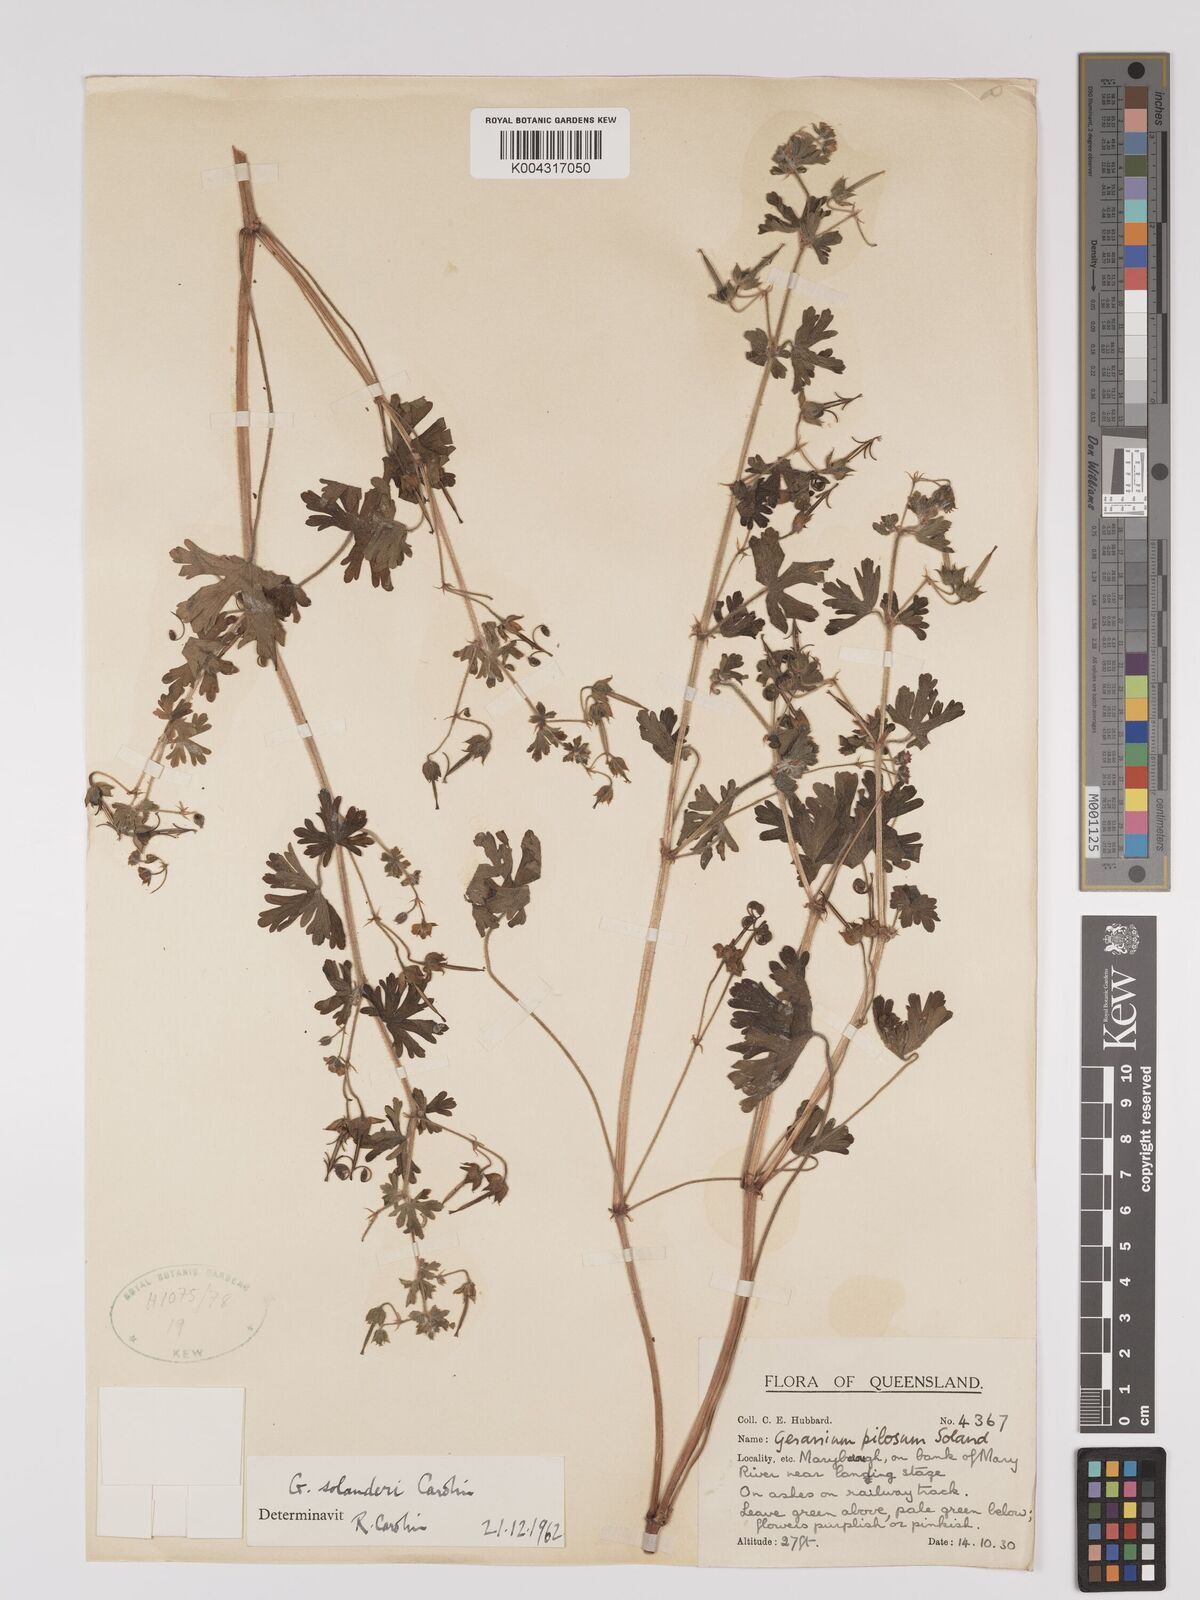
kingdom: Plantae
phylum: Tracheophyta
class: Magnoliopsida
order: Geraniales
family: Geraniaceae
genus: Geranium
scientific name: Geranium solanderi
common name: Solander's geranium
